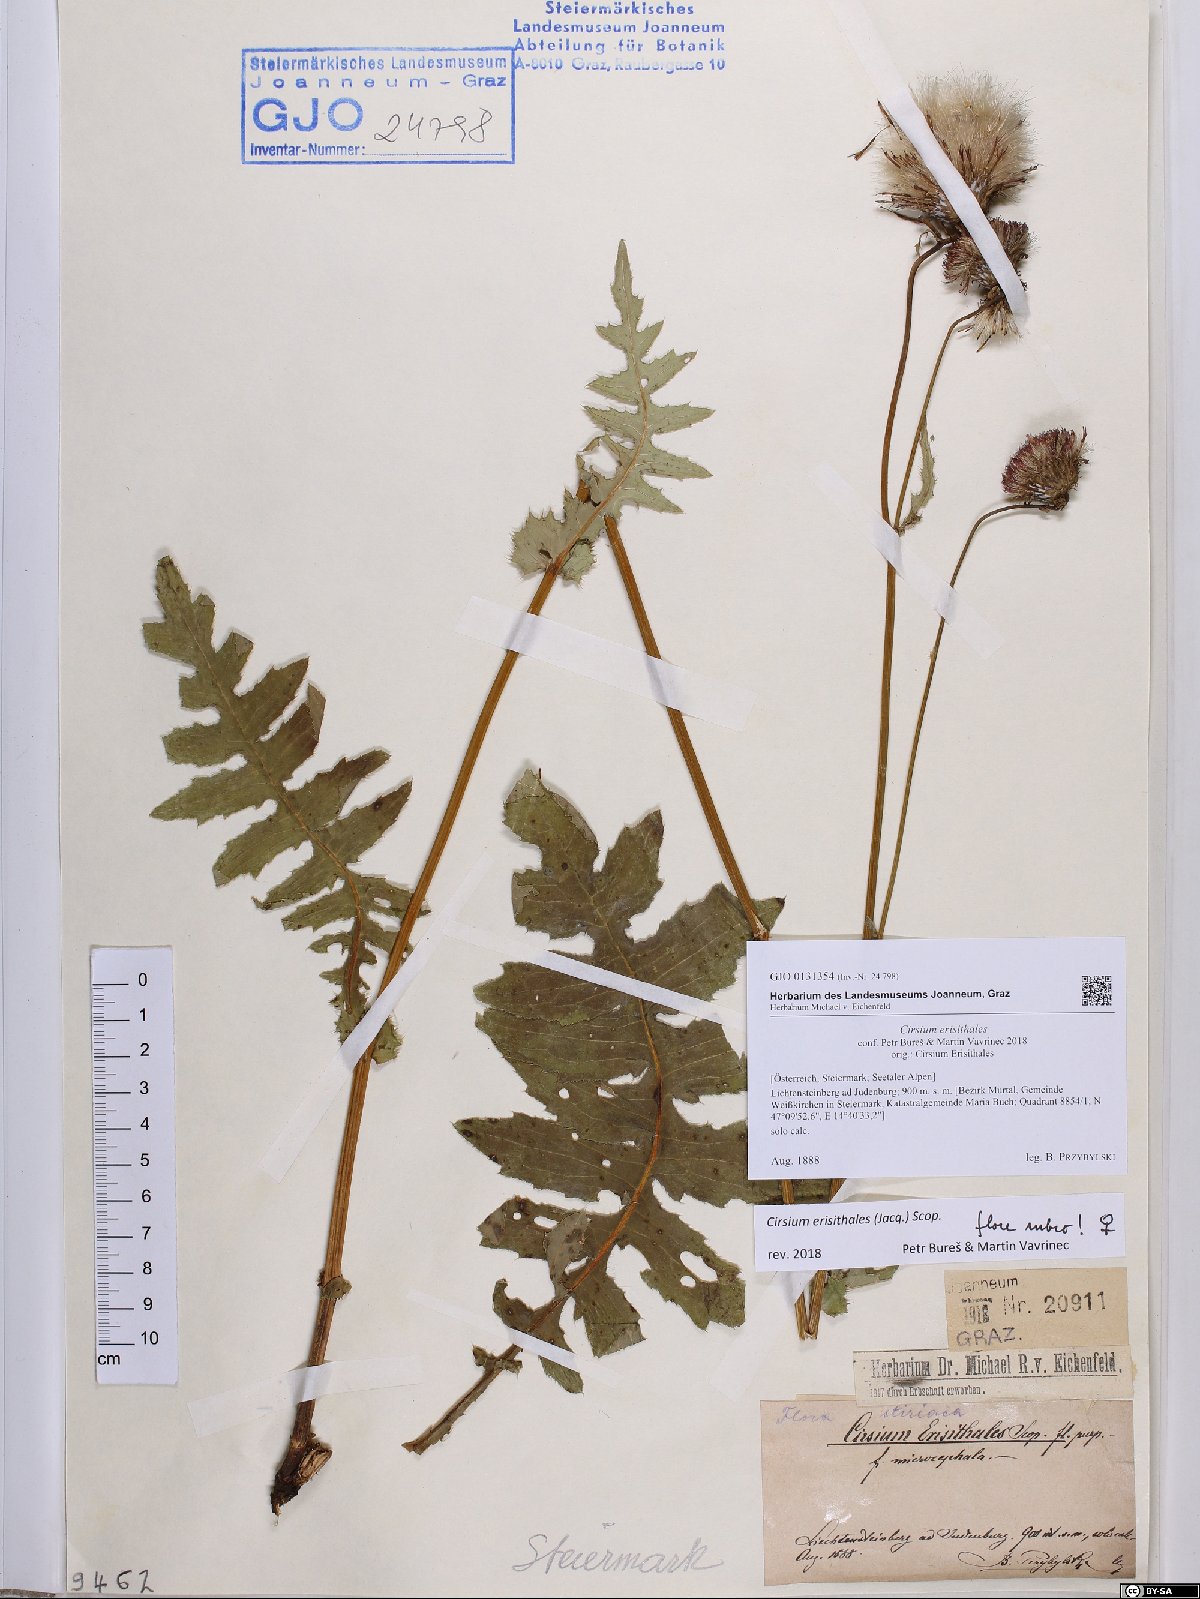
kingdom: Plantae
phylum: Tracheophyta
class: Magnoliopsida
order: Asterales
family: Asteraceae
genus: Cirsium
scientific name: Cirsium erisithales
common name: Yellow thistle
